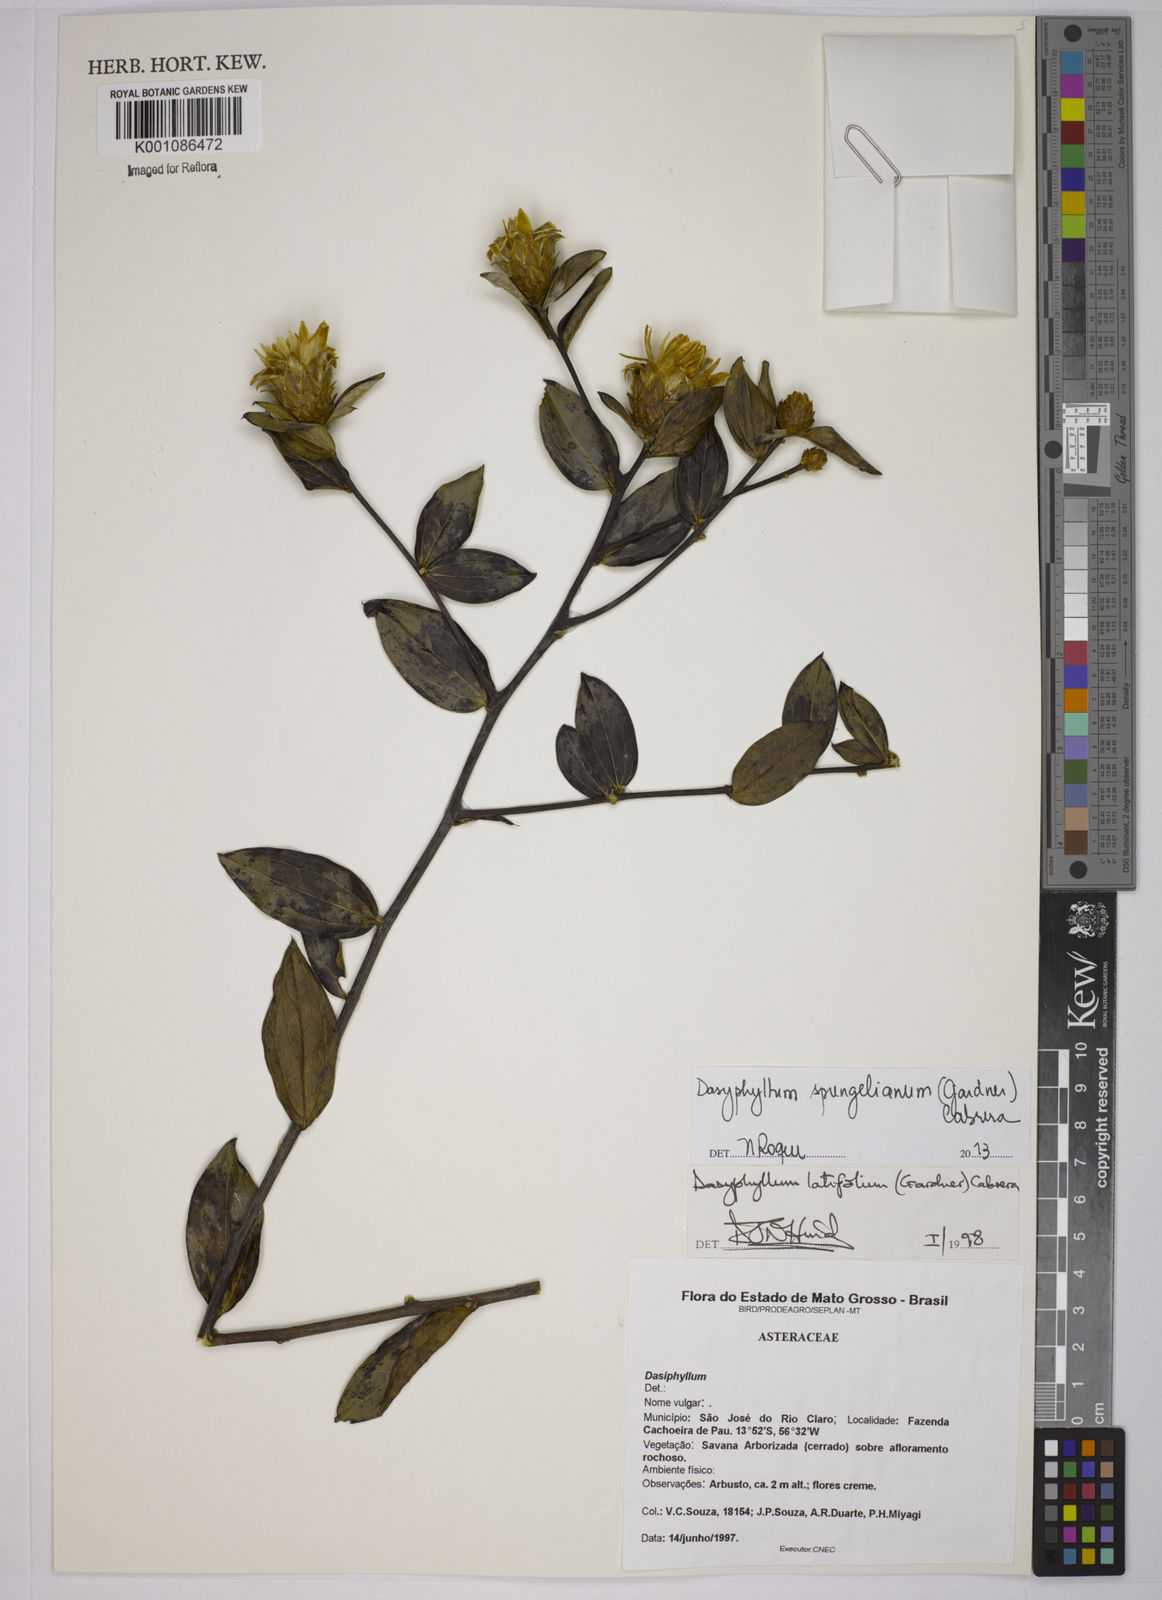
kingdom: Plantae
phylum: Tracheophyta
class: Magnoliopsida
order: Asterales
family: Asteraceae
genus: Dasyphyllum
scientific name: Dasyphyllum sprengelianum
